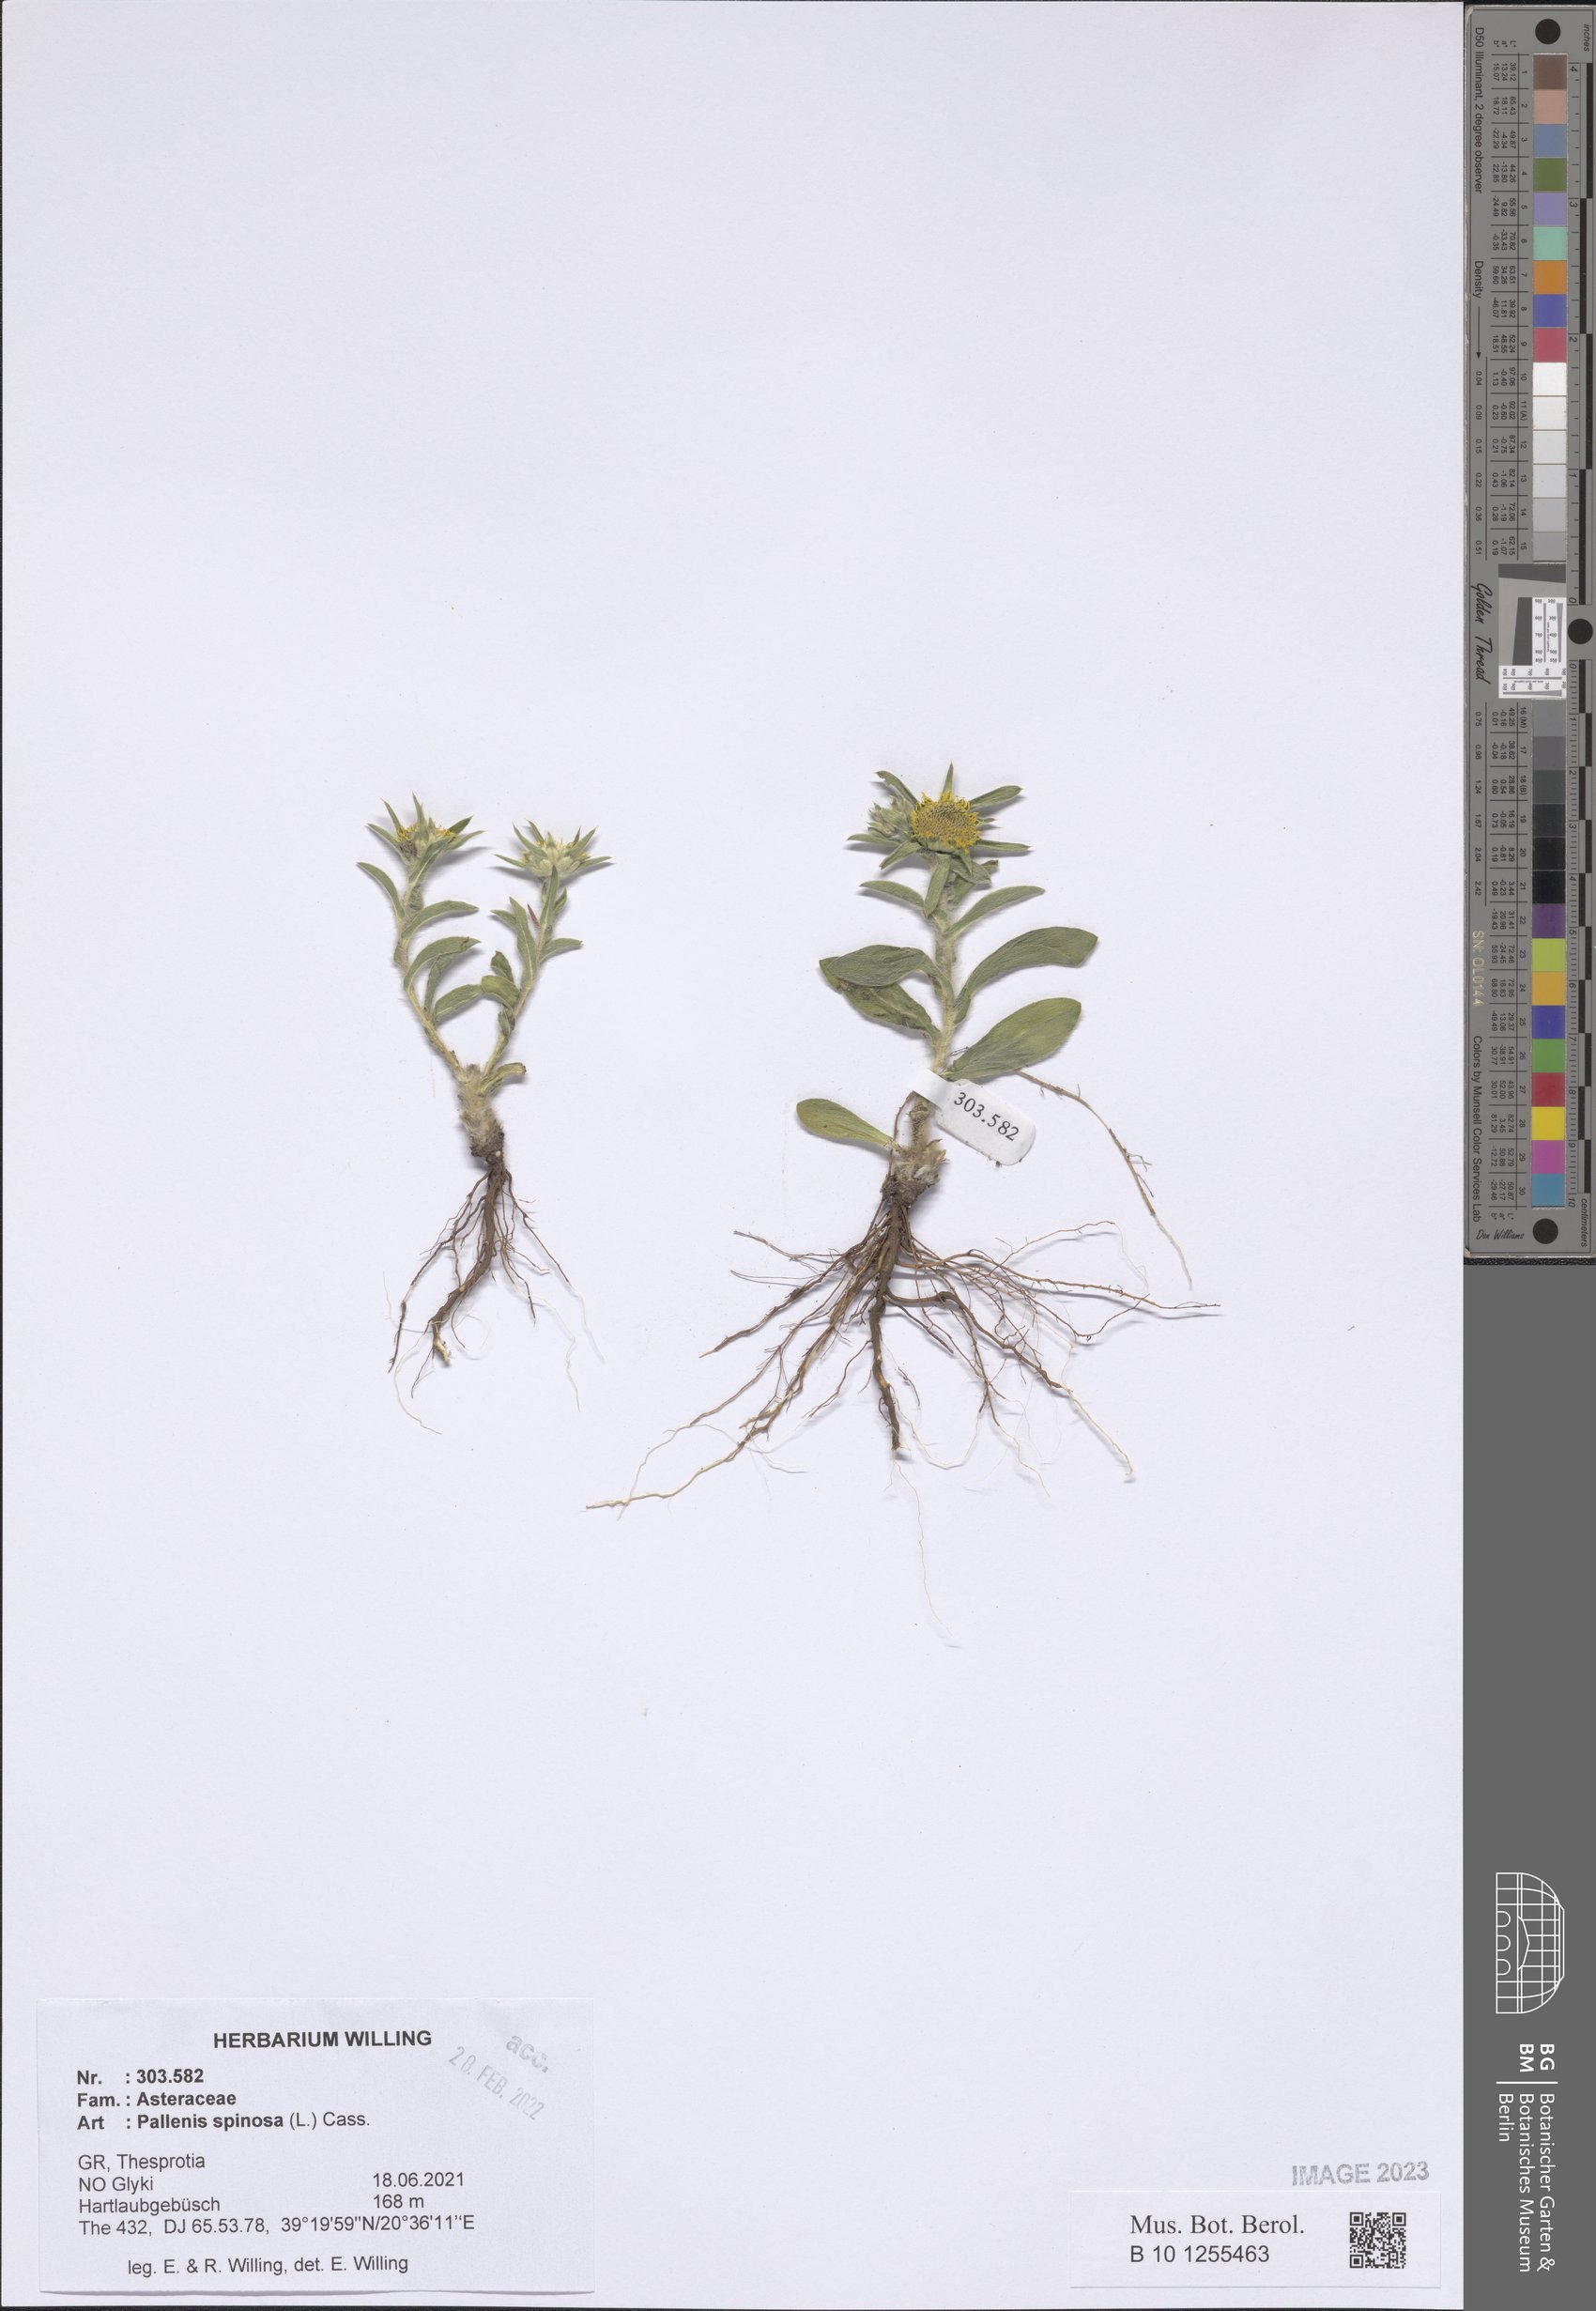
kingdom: Plantae
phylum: Tracheophyta
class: Magnoliopsida
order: Asterales
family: Asteraceae
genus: Pallenis
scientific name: Pallenis spinosa
